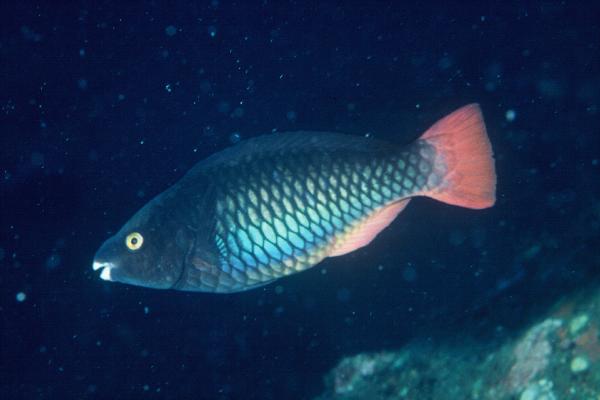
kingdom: Animalia
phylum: Chordata
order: Perciformes
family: Scaridae
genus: Scarus
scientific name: Scarus tricolor
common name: Tricolour parrotfish
